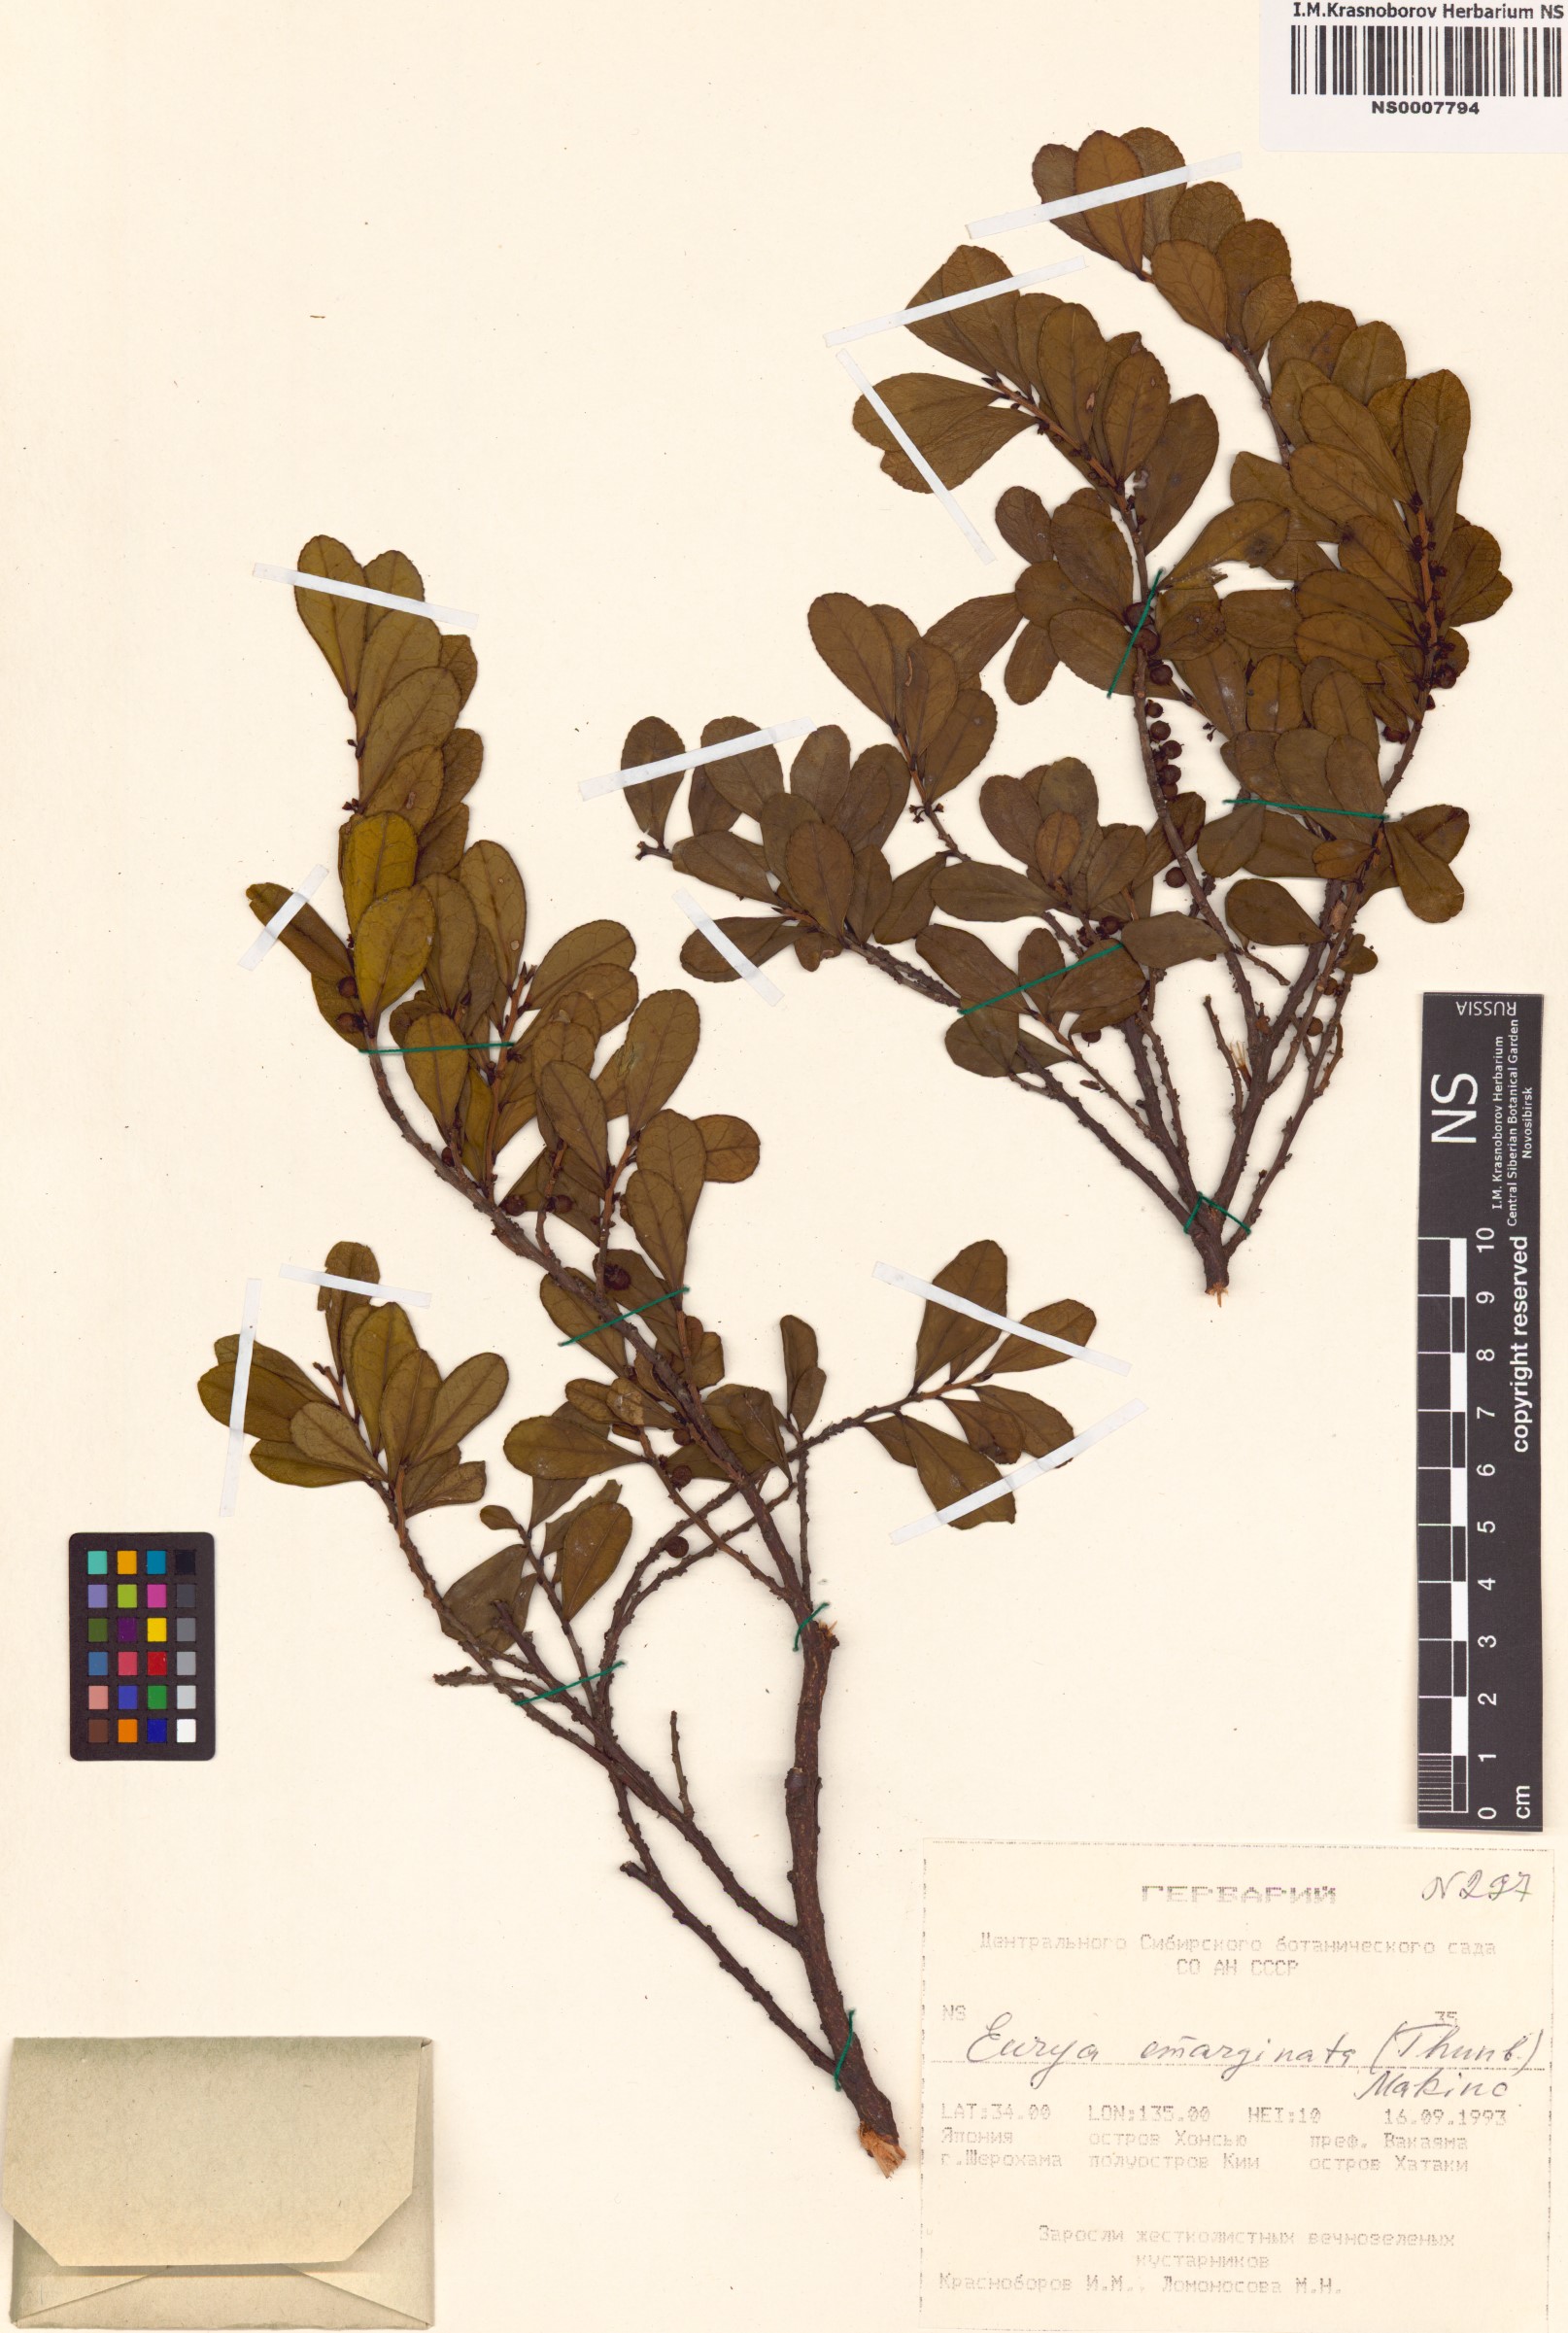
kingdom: Plantae
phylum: Tracheophyta
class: Magnoliopsida
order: Ericales
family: Pentaphylacaceae
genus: Eurya
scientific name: Eurya emarginata
